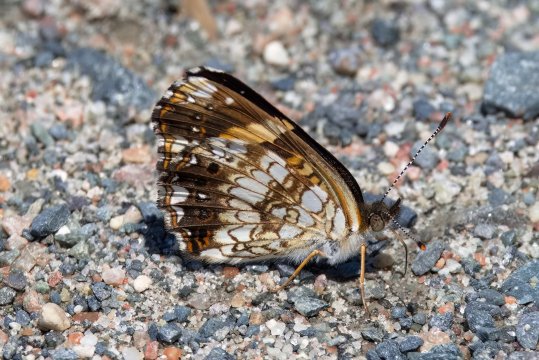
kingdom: Animalia
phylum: Arthropoda
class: Insecta
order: Lepidoptera
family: Nymphalidae
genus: Chlosyne
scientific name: Chlosyne nycteis
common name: Silvery Checkerspot
